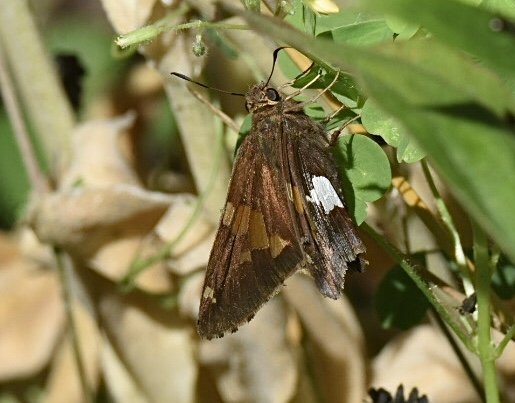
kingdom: Animalia
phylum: Arthropoda
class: Insecta
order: Lepidoptera
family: Hesperiidae
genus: Epargyreus
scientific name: Epargyreus clarus
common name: Silver-spotted Skipper
